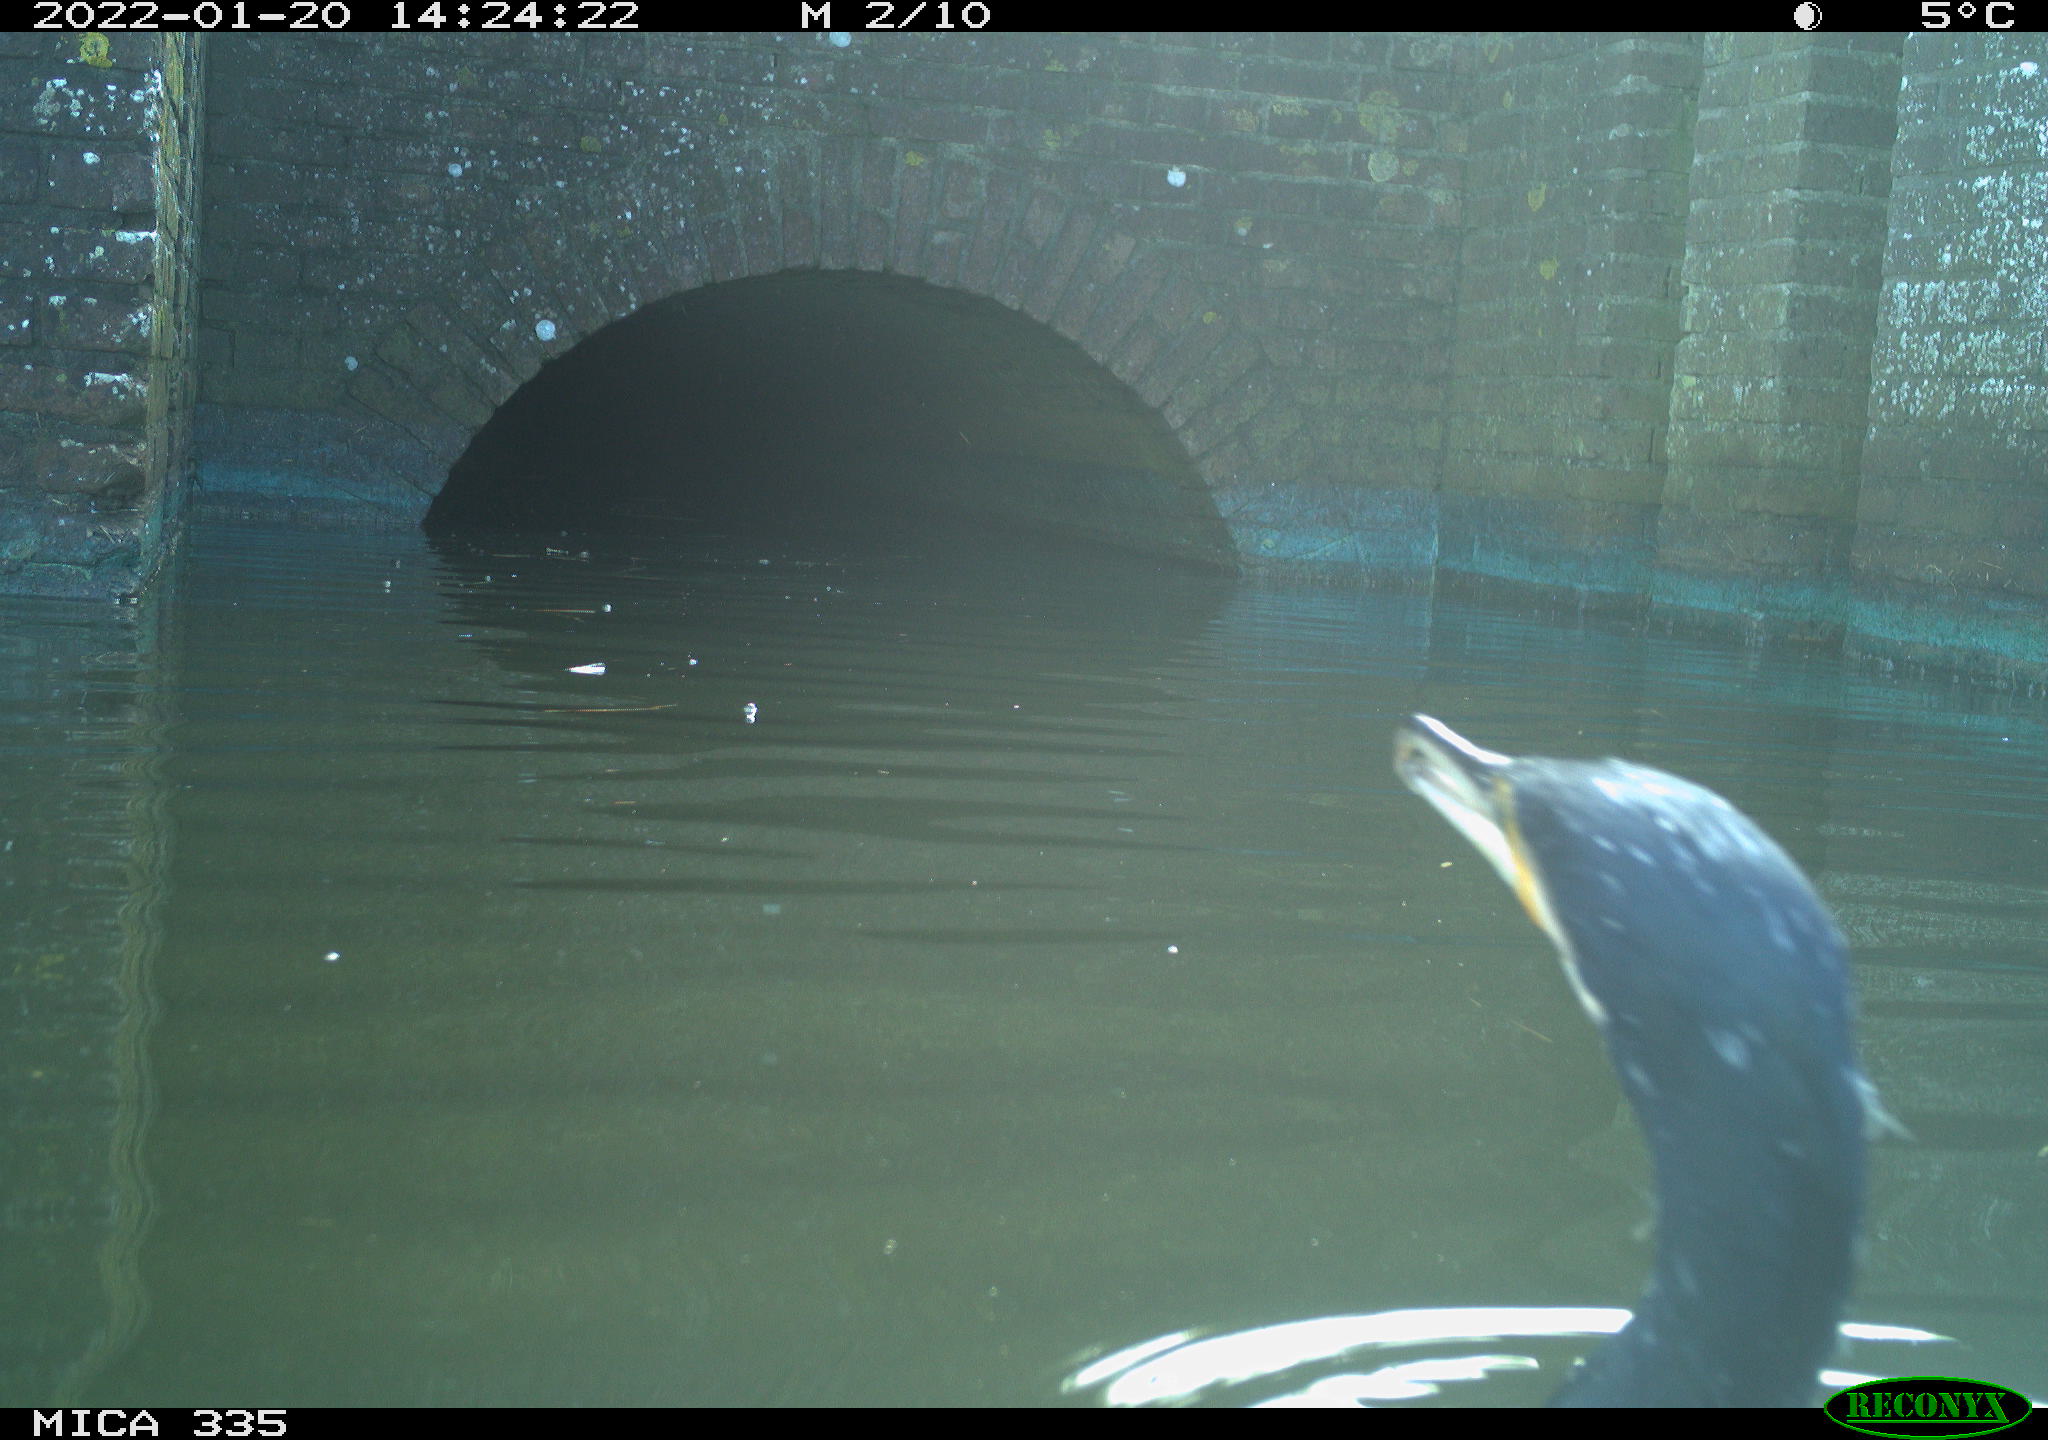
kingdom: Animalia
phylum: Chordata
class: Aves
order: Suliformes
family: Phalacrocoracidae
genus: Phalacrocorax
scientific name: Phalacrocorax carbo
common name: Great cormorant
